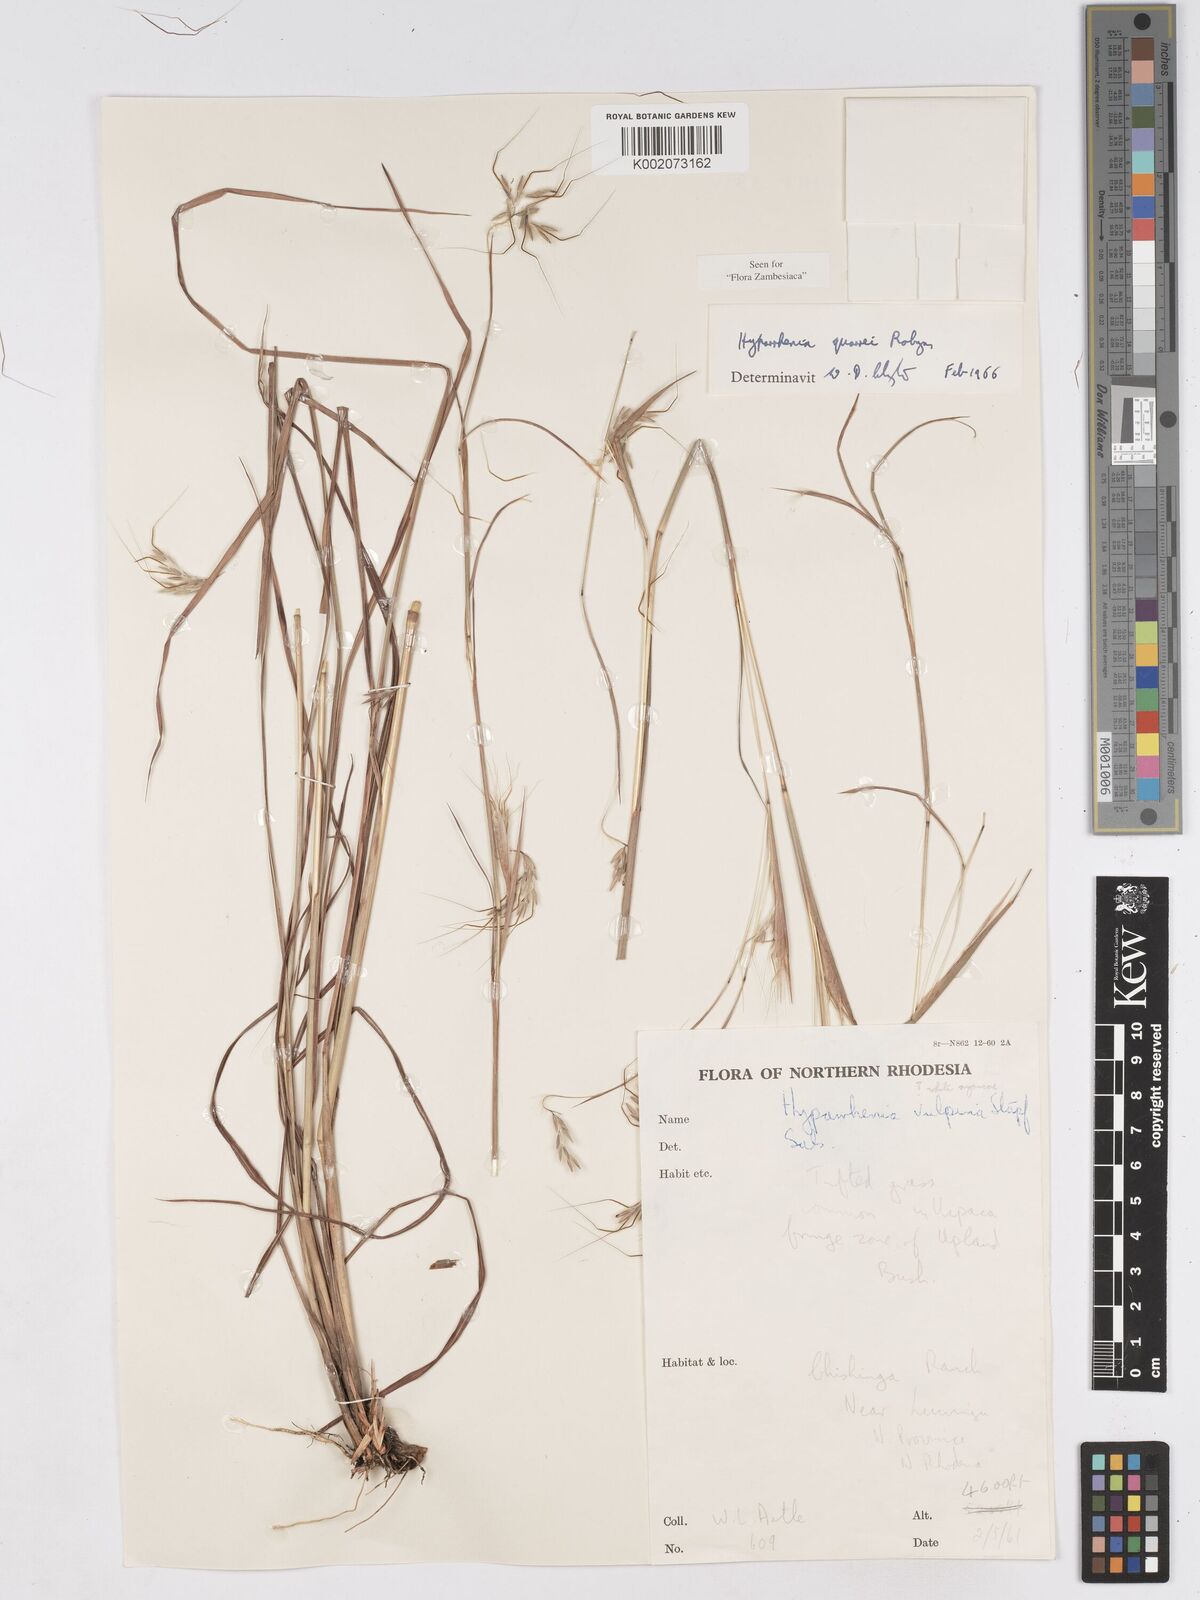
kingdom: Plantae
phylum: Tracheophyta
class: Liliopsida
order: Poales
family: Poaceae
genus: Hyparrhenia
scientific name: Hyparrhenia quarrei
